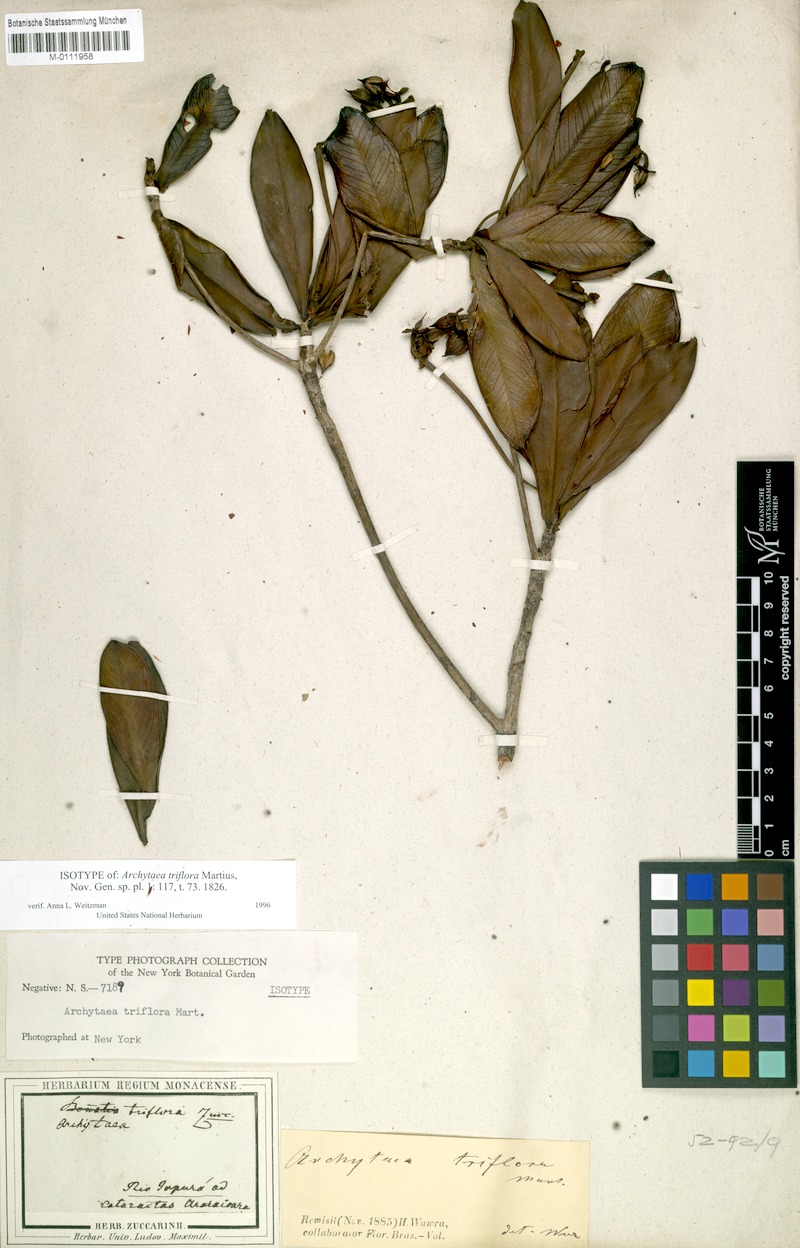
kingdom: Plantae
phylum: Tracheophyta
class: Magnoliopsida
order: Malpighiales
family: Bonnetiaceae
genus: Archytaea
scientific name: Archytaea triflora
